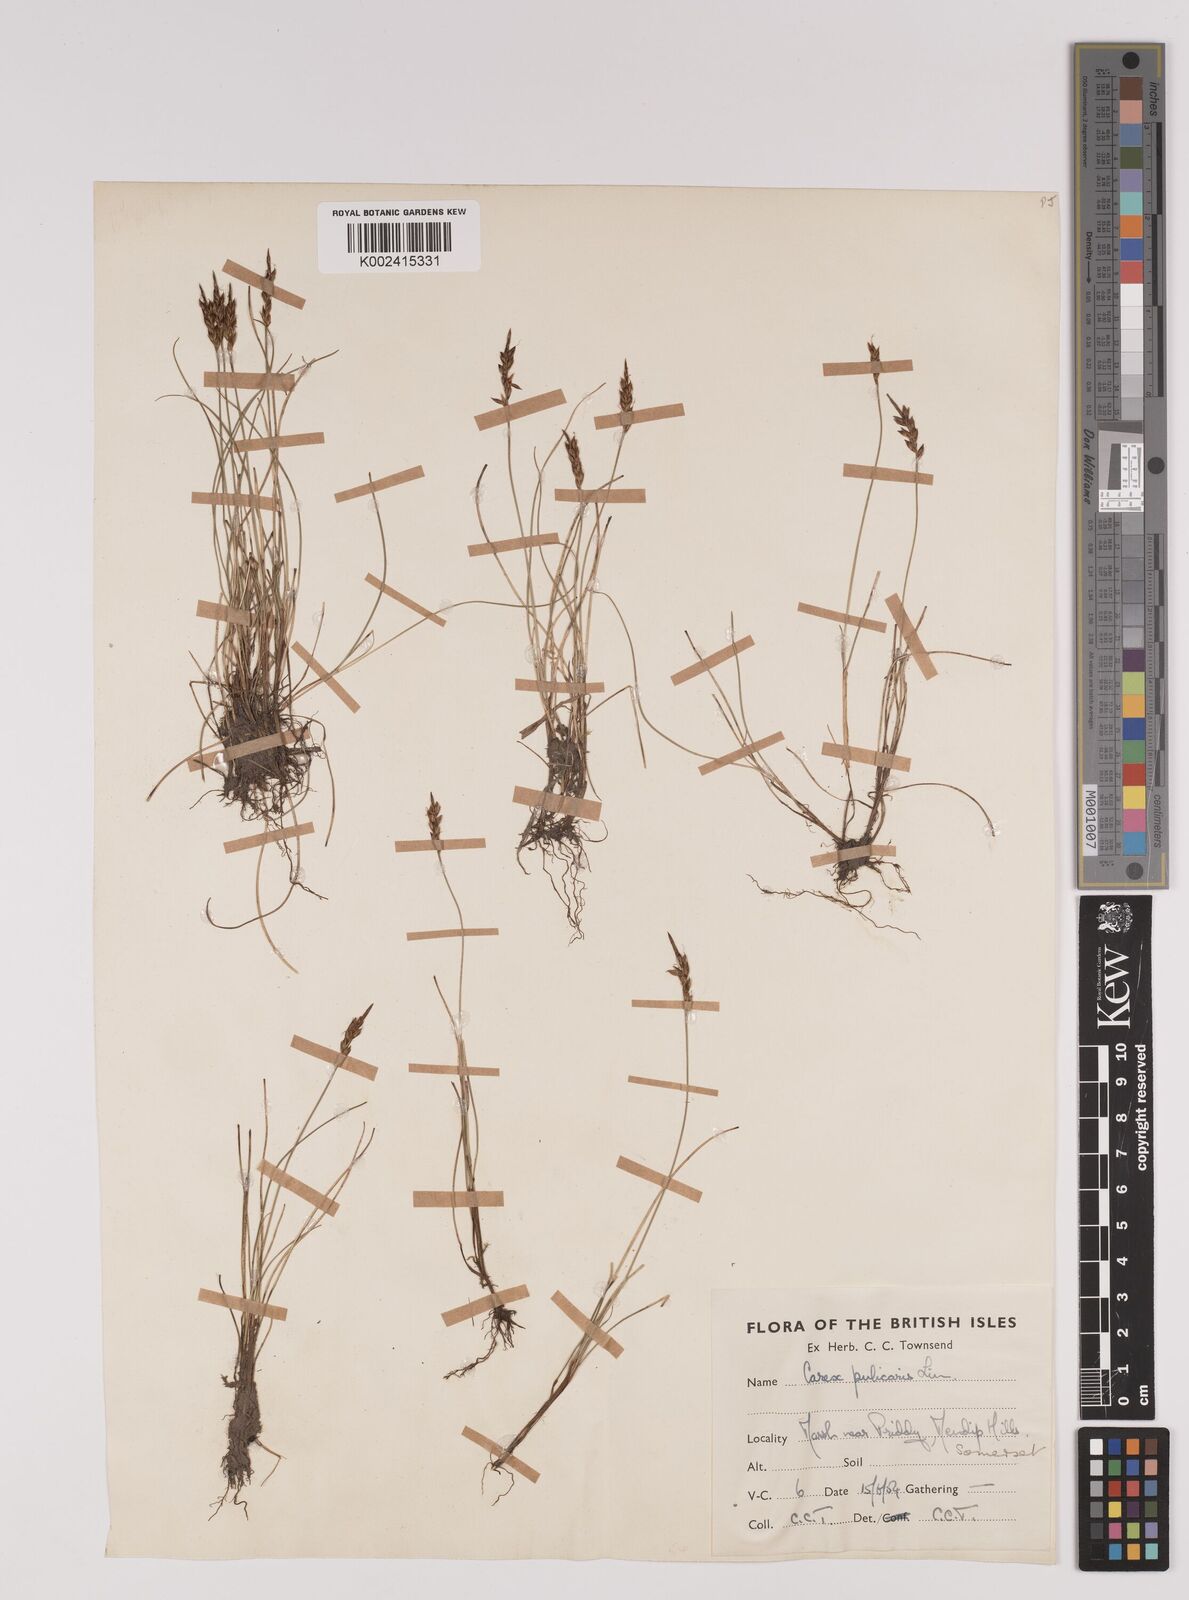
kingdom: Plantae
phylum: Tracheophyta
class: Liliopsida
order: Poales
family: Cyperaceae
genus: Carex
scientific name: Carex pulicaris
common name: Flea sedge
